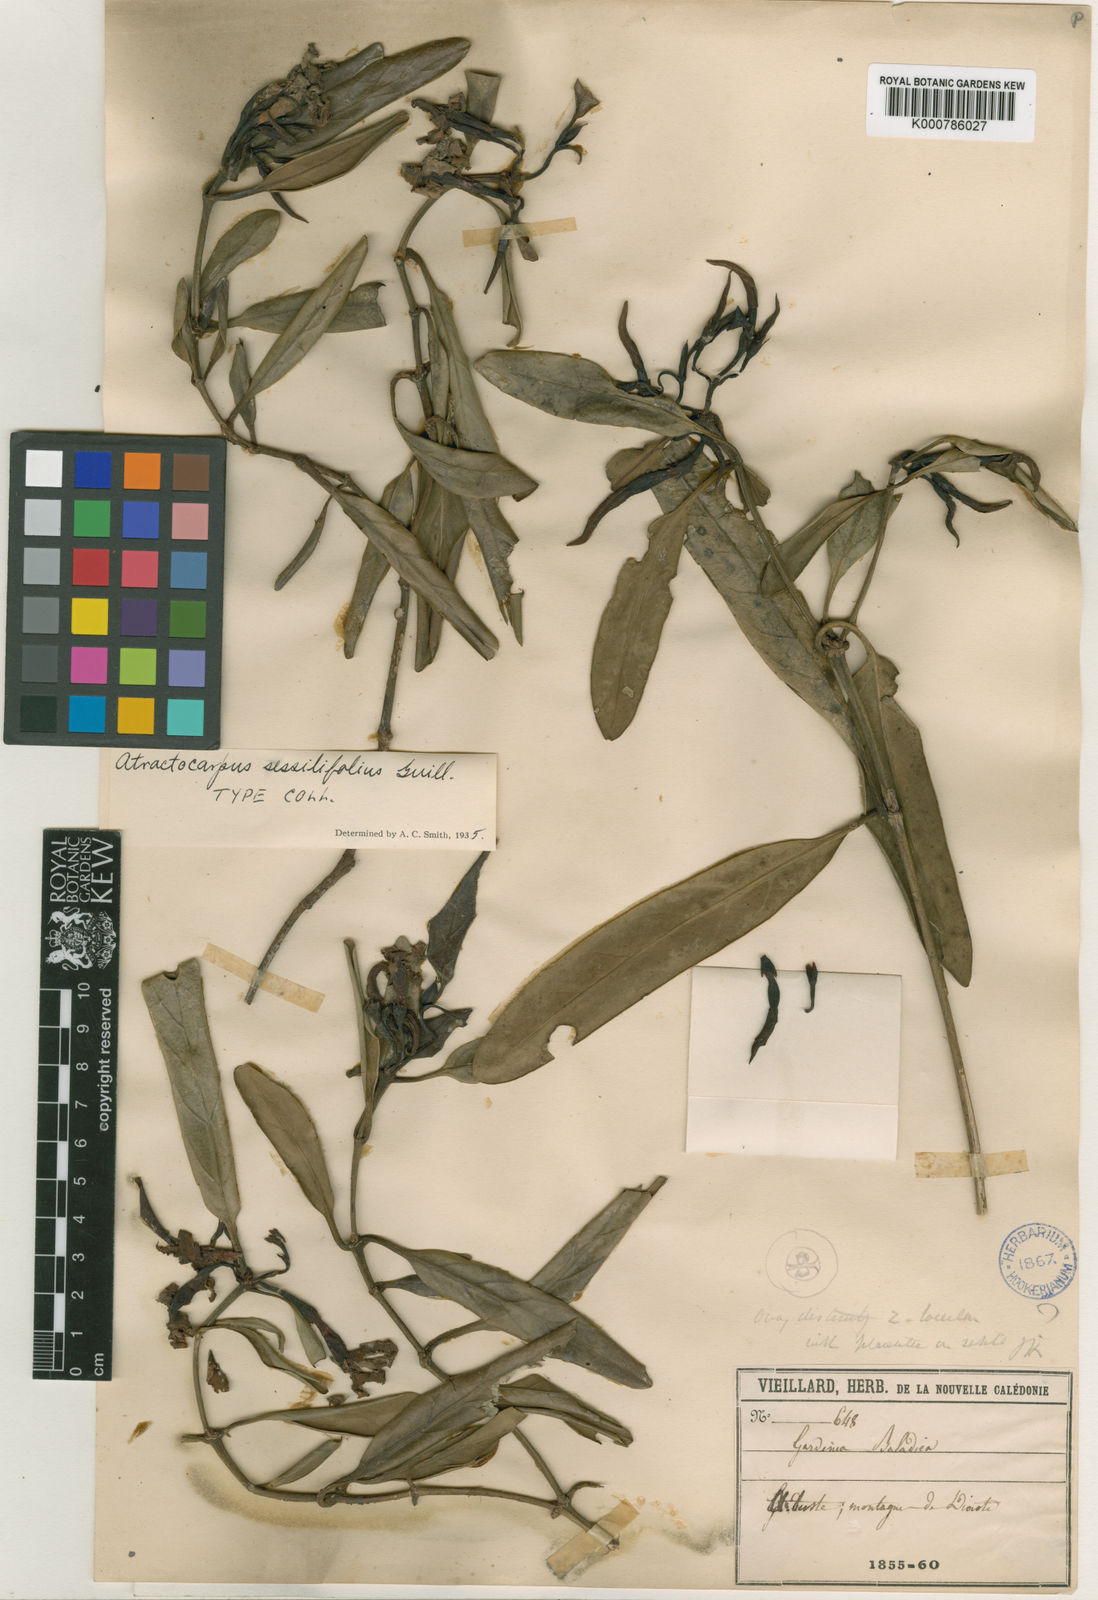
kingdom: Plantae
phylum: Tracheophyta
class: Magnoliopsida
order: Gentianales
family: Rubiaceae
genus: Atractocarpus
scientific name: Atractocarpus baladicus
